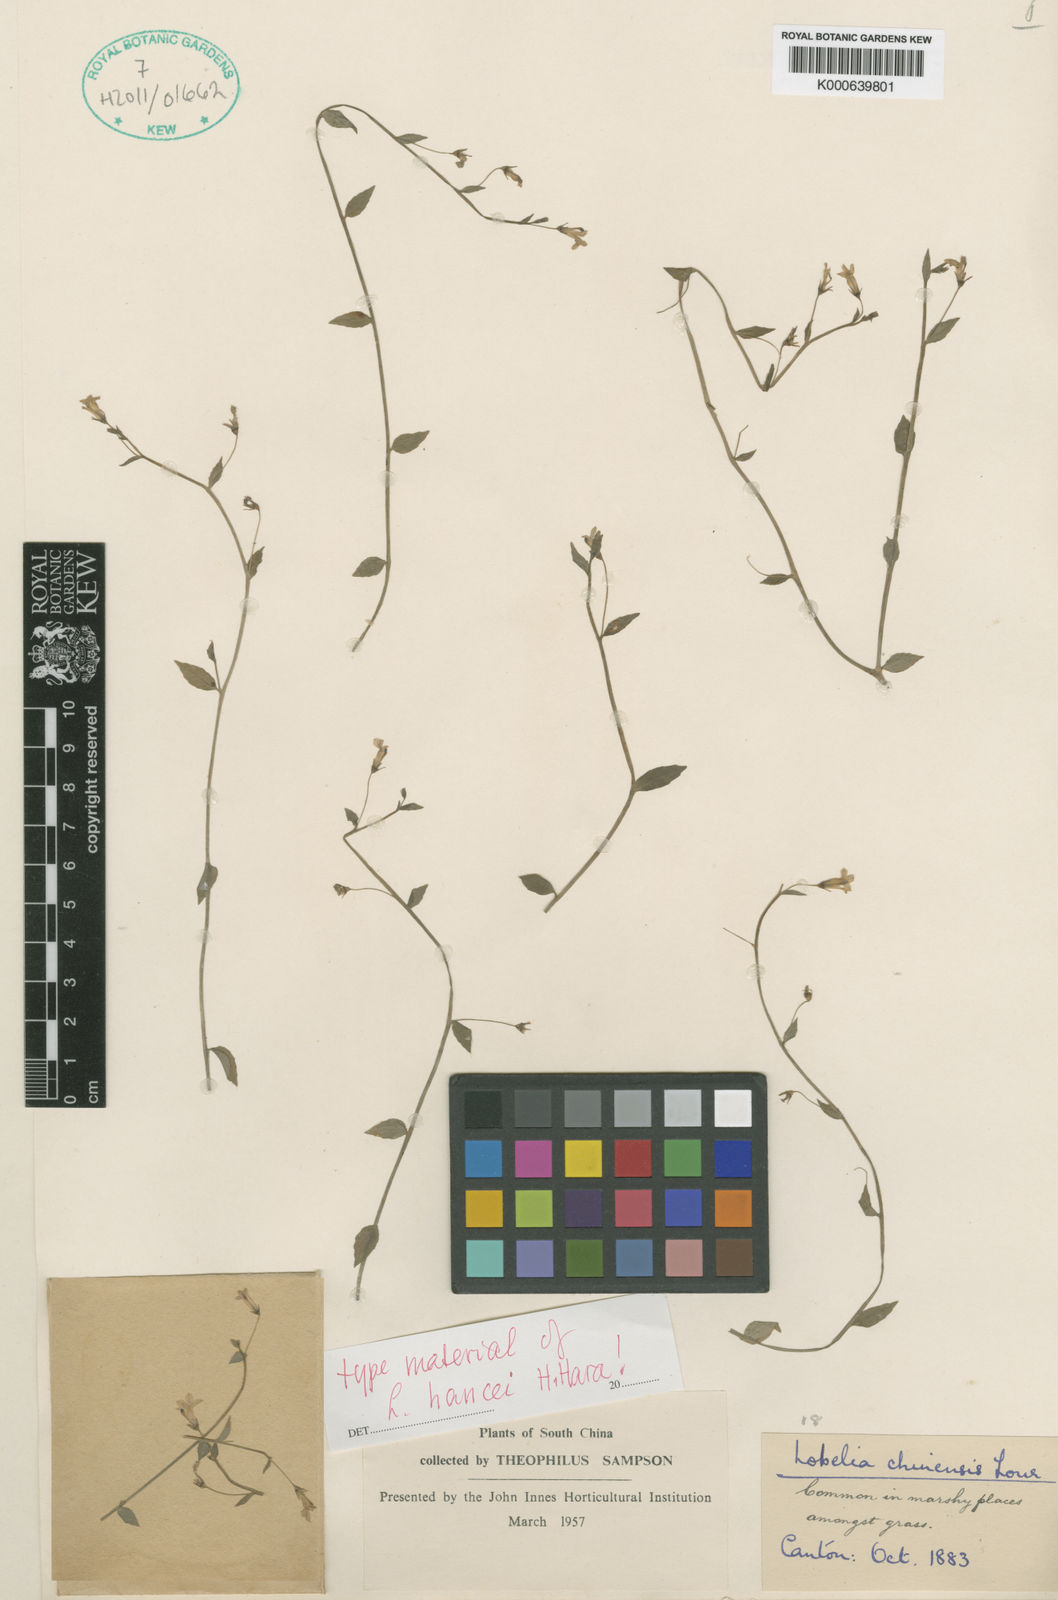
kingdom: Plantae
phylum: Tracheophyta
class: Magnoliopsida
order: Asterales
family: Campanulaceae
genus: Lobelia
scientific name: Lobelia dopatrioides
